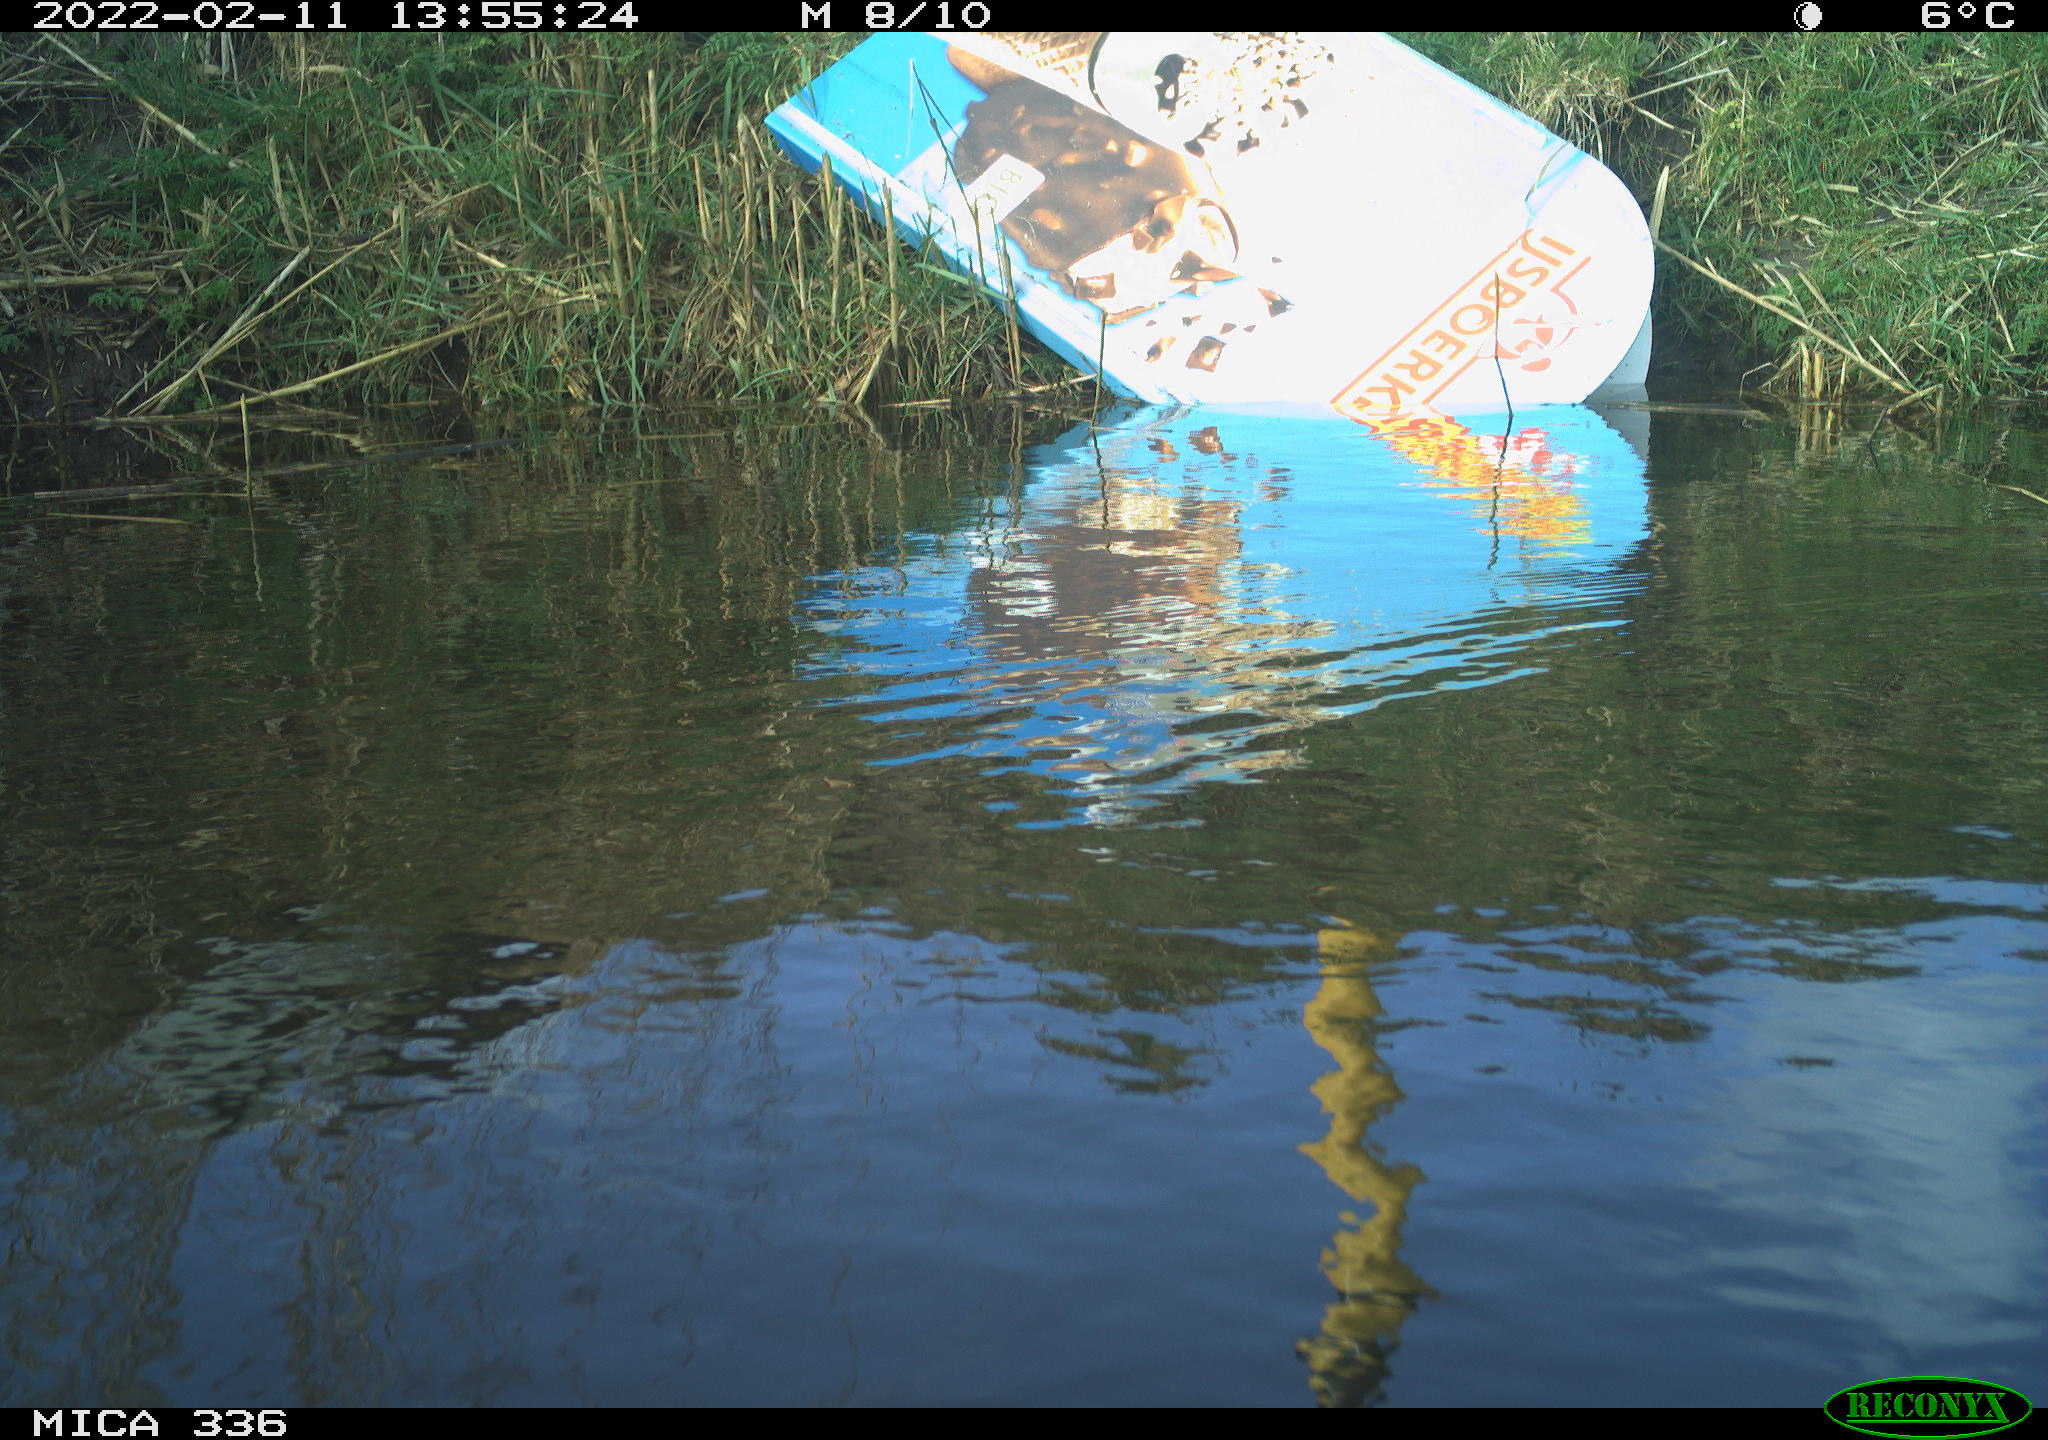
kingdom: Animalia
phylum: Chordata
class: Aves
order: Gruiformes
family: Rallidae
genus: Gallinula
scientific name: Gallinula chloropus
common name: Common moorhen
